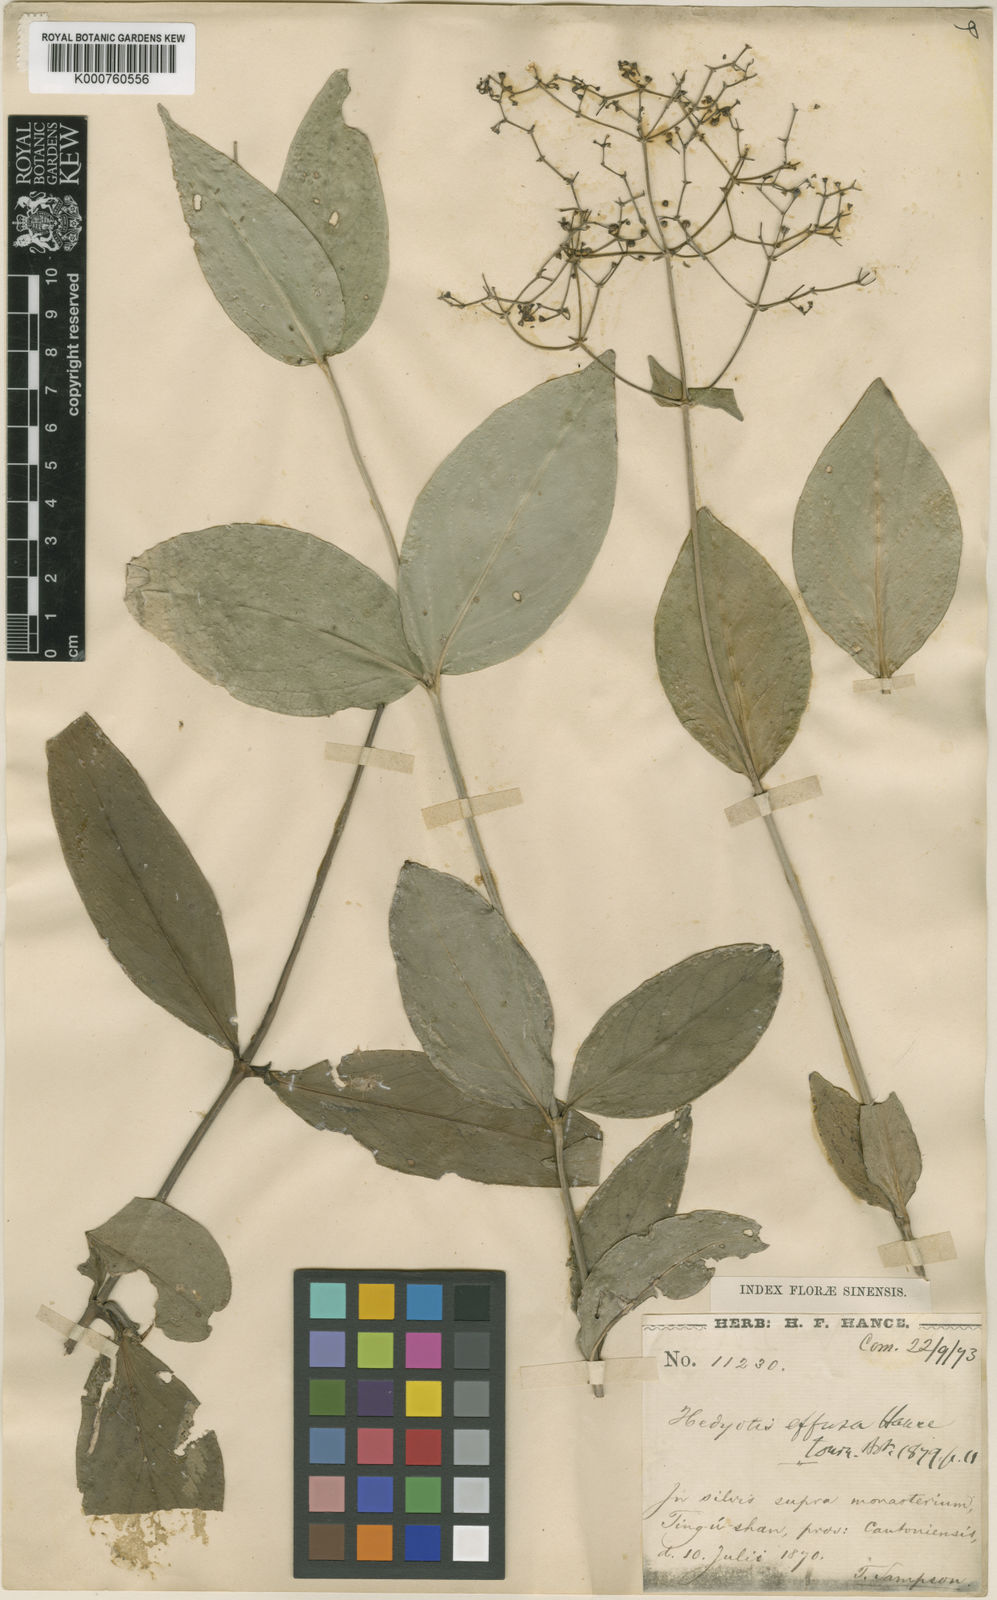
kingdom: Plantae
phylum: Tracheophyta
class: Magnoliopsida
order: Gentianales
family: Rubiaceae
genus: Cordylostigma
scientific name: Cordylostigma longifolium
